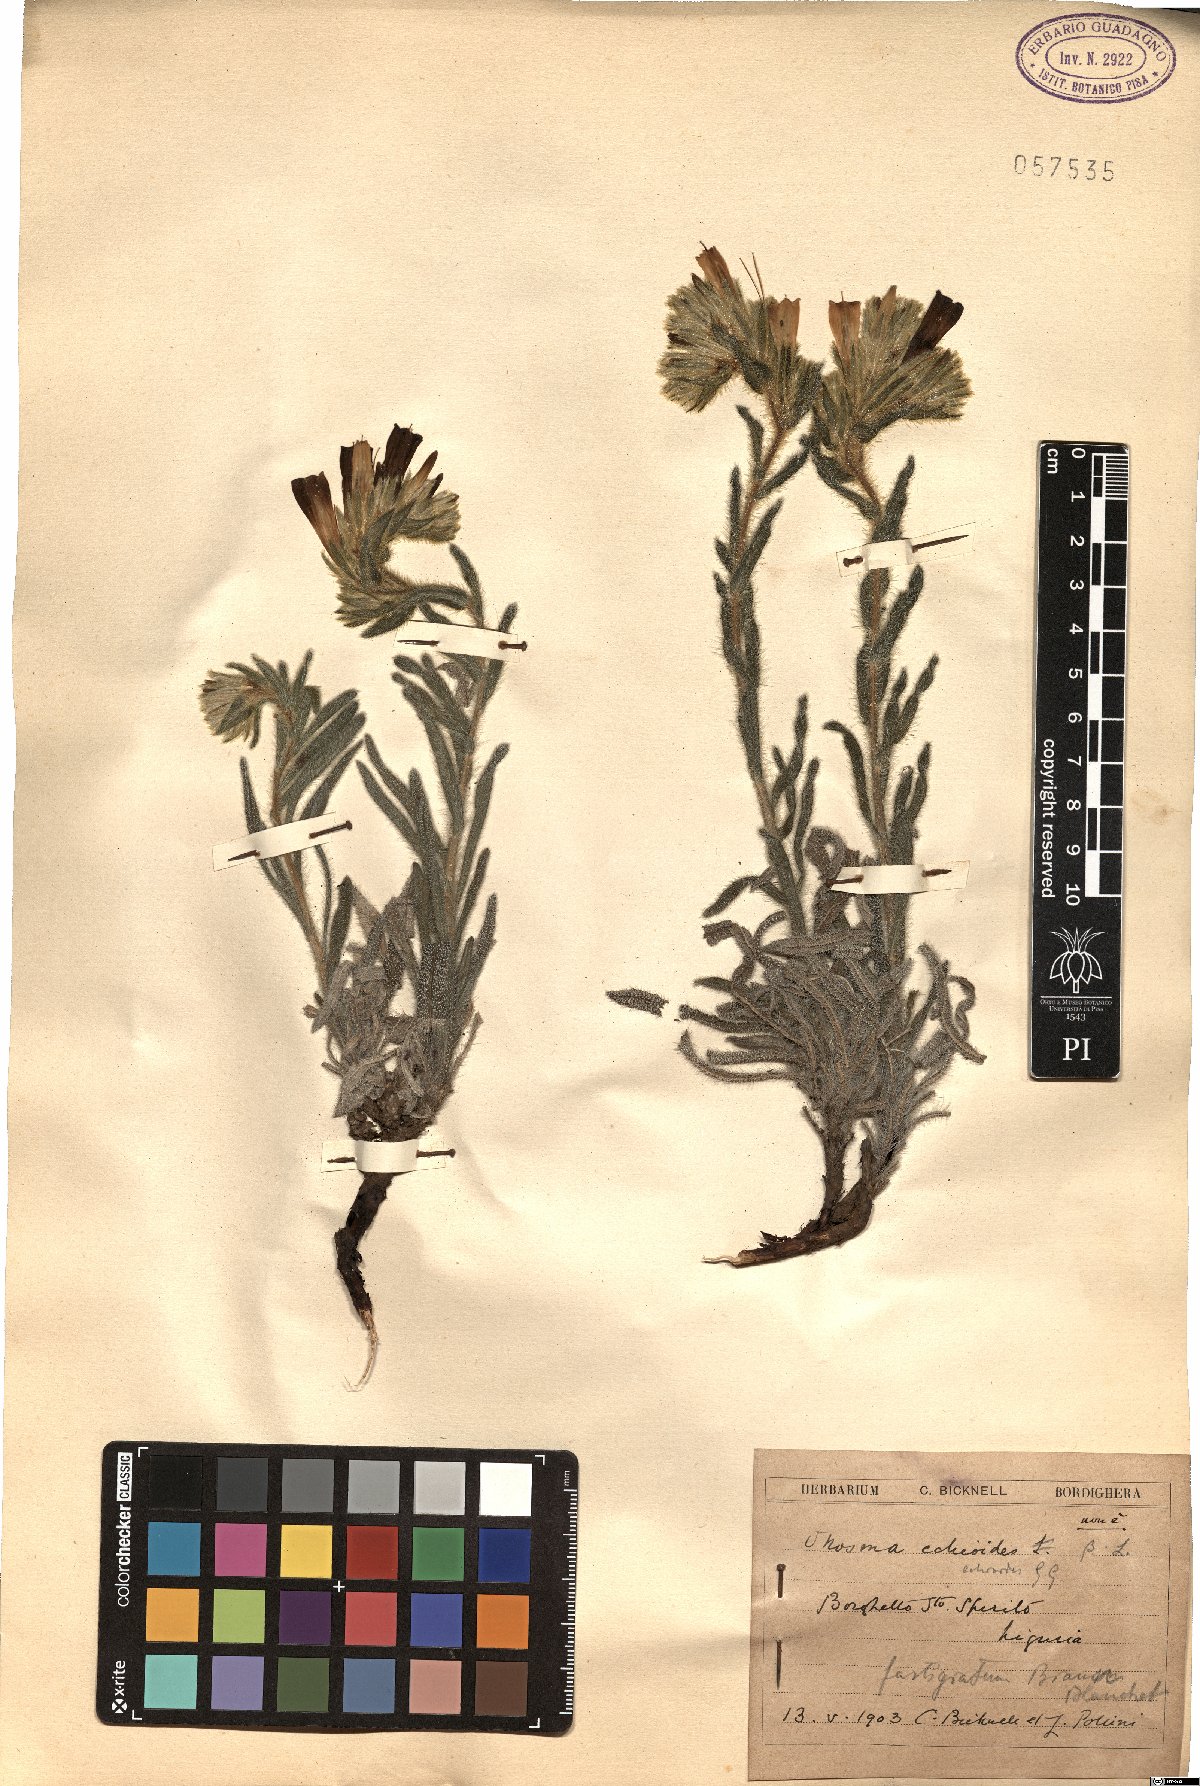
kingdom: Plantae
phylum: Tracheophyta
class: Magnoliopsida
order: Boraginales
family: Boraginaceae
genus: Onosma
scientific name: Onosma echioides
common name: Goldendrop
